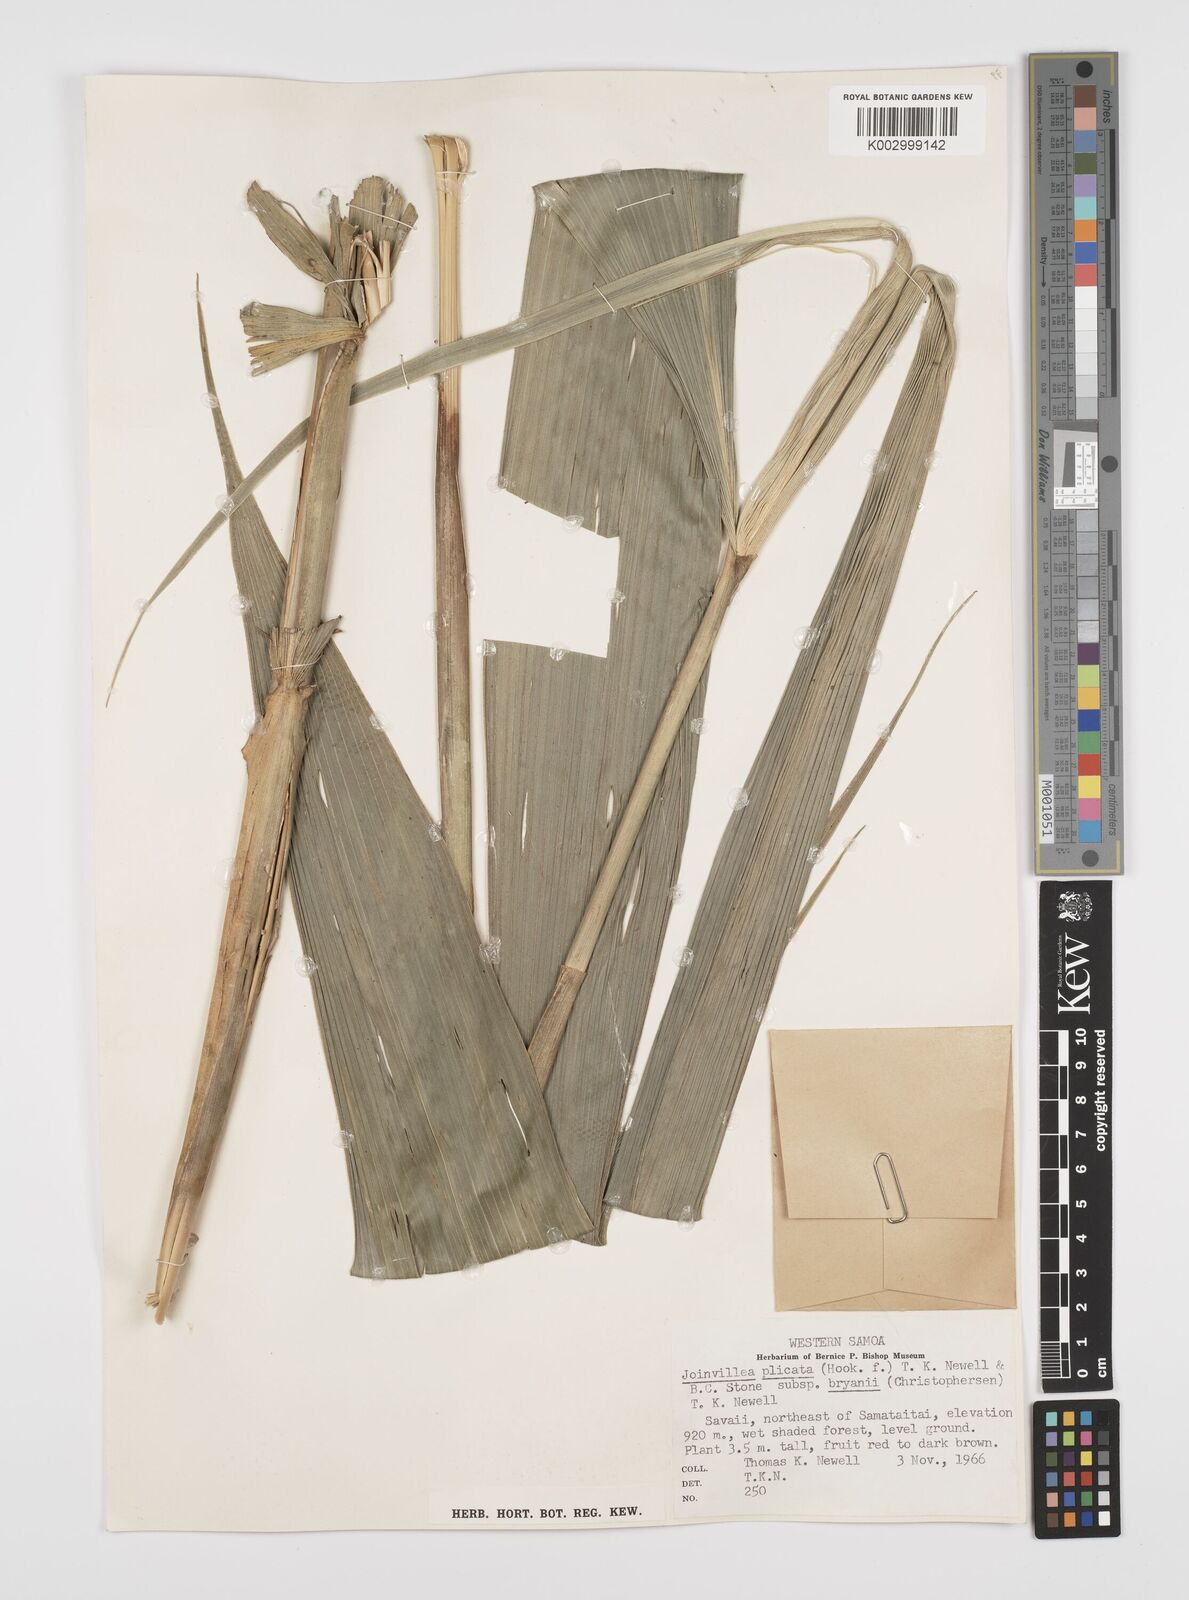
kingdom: Plantae
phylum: Tracheophyta
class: Liliopsida
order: Poales
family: Joinvilleaceae
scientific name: Joinvilleaceae
